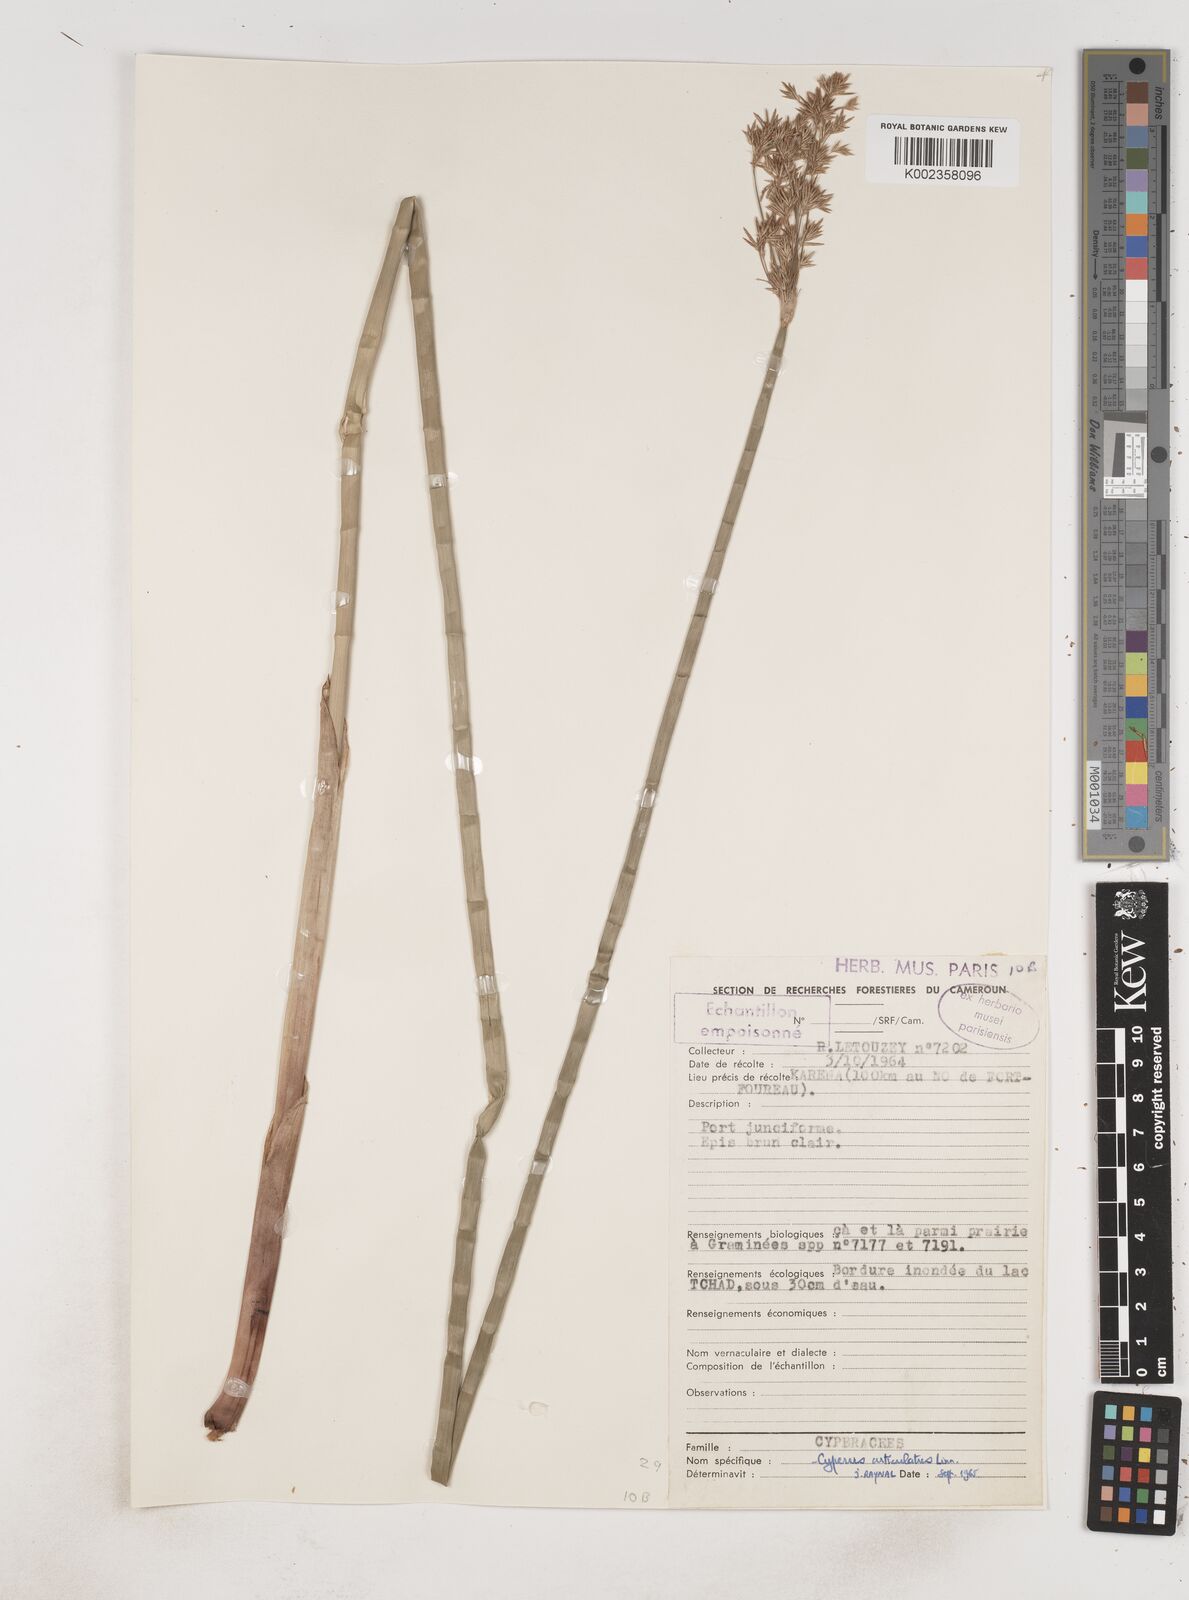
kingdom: Plantae
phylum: Tracheophyta
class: Liliopsida
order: Poales
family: Cyperaceae
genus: Cyperus
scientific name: Cyperus articulatus
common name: Jointed flatsedge
